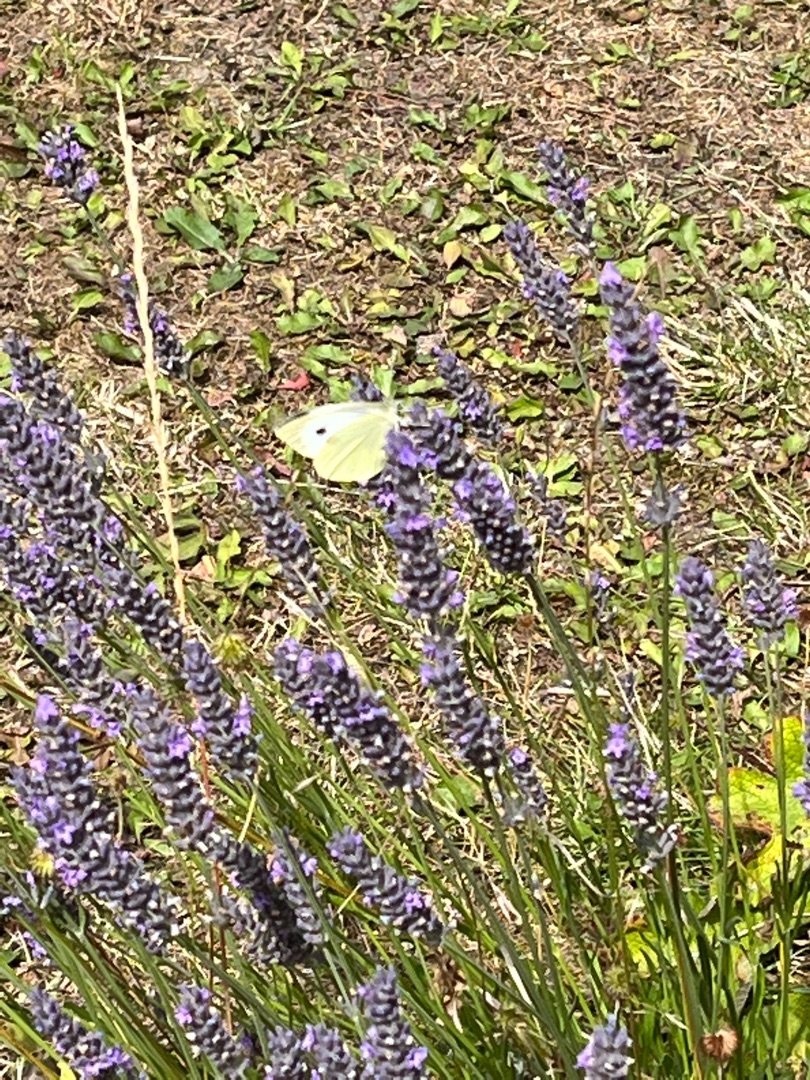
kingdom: Animalia
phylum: Arthropoda
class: Insecta
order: Lepidoptera
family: Pieridae
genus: Pieris
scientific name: Pieris brassicae
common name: Stor kålsommerfugl
